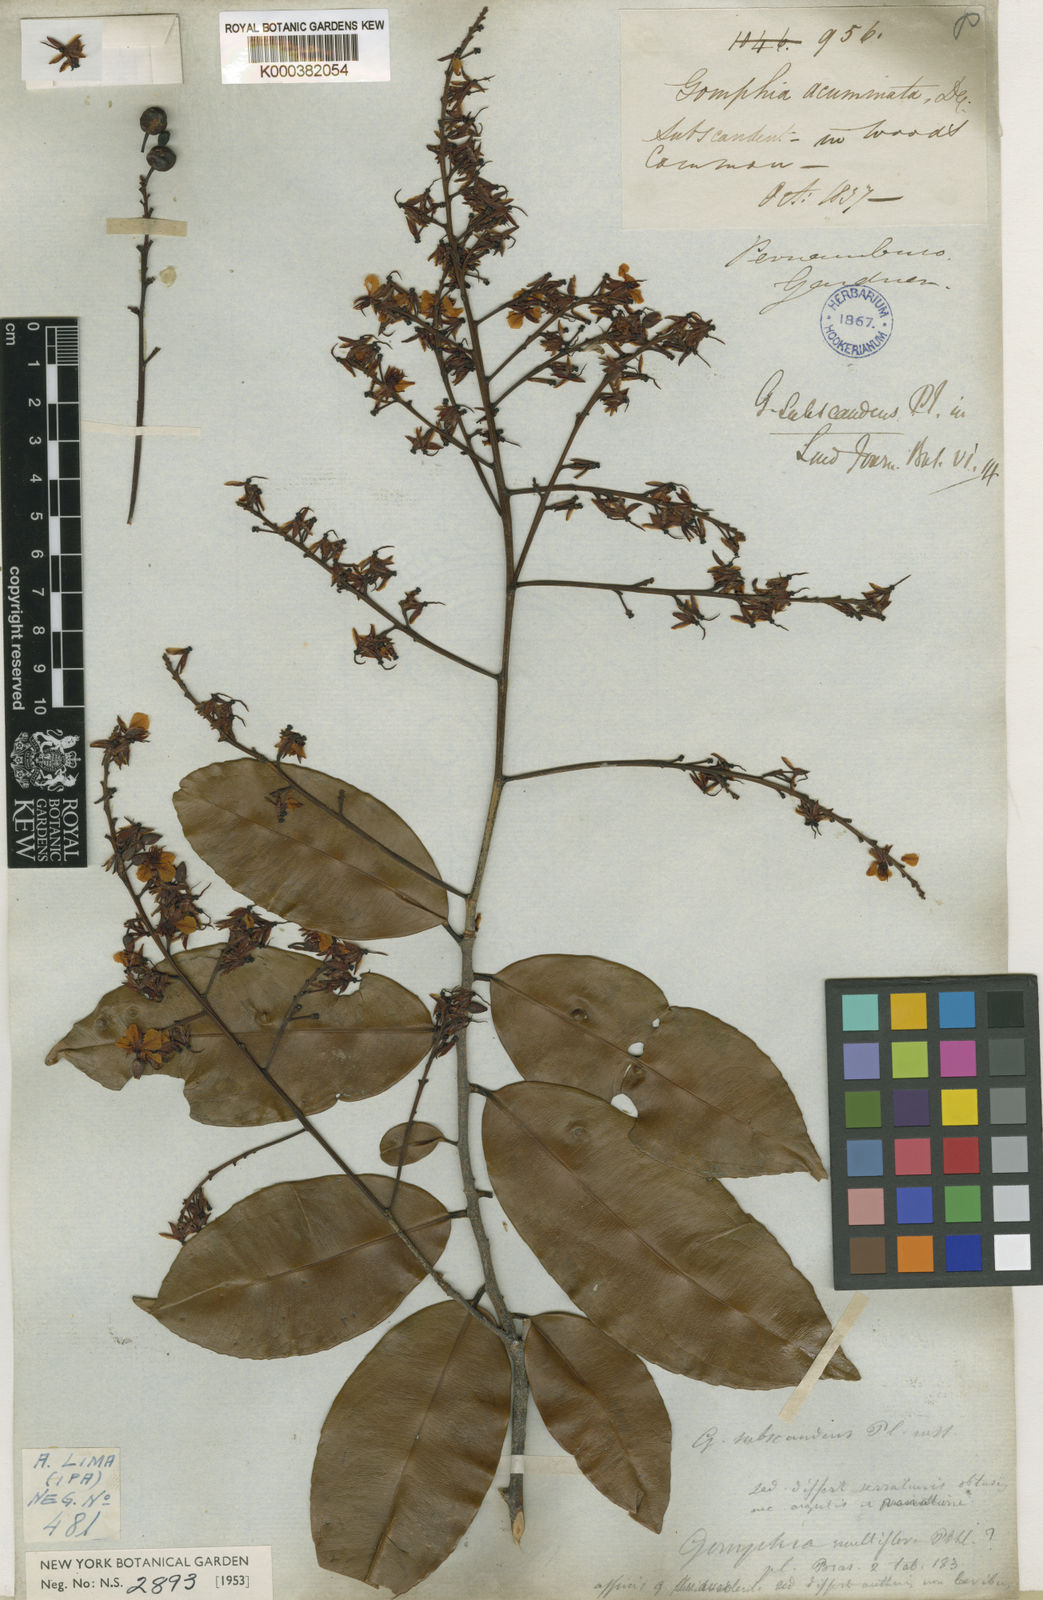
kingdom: Plantae
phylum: Tracheophyta
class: Magnoliopsida
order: Malpighiales
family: Ochnaceae
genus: Ouratea
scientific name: Ouratea subscandens
